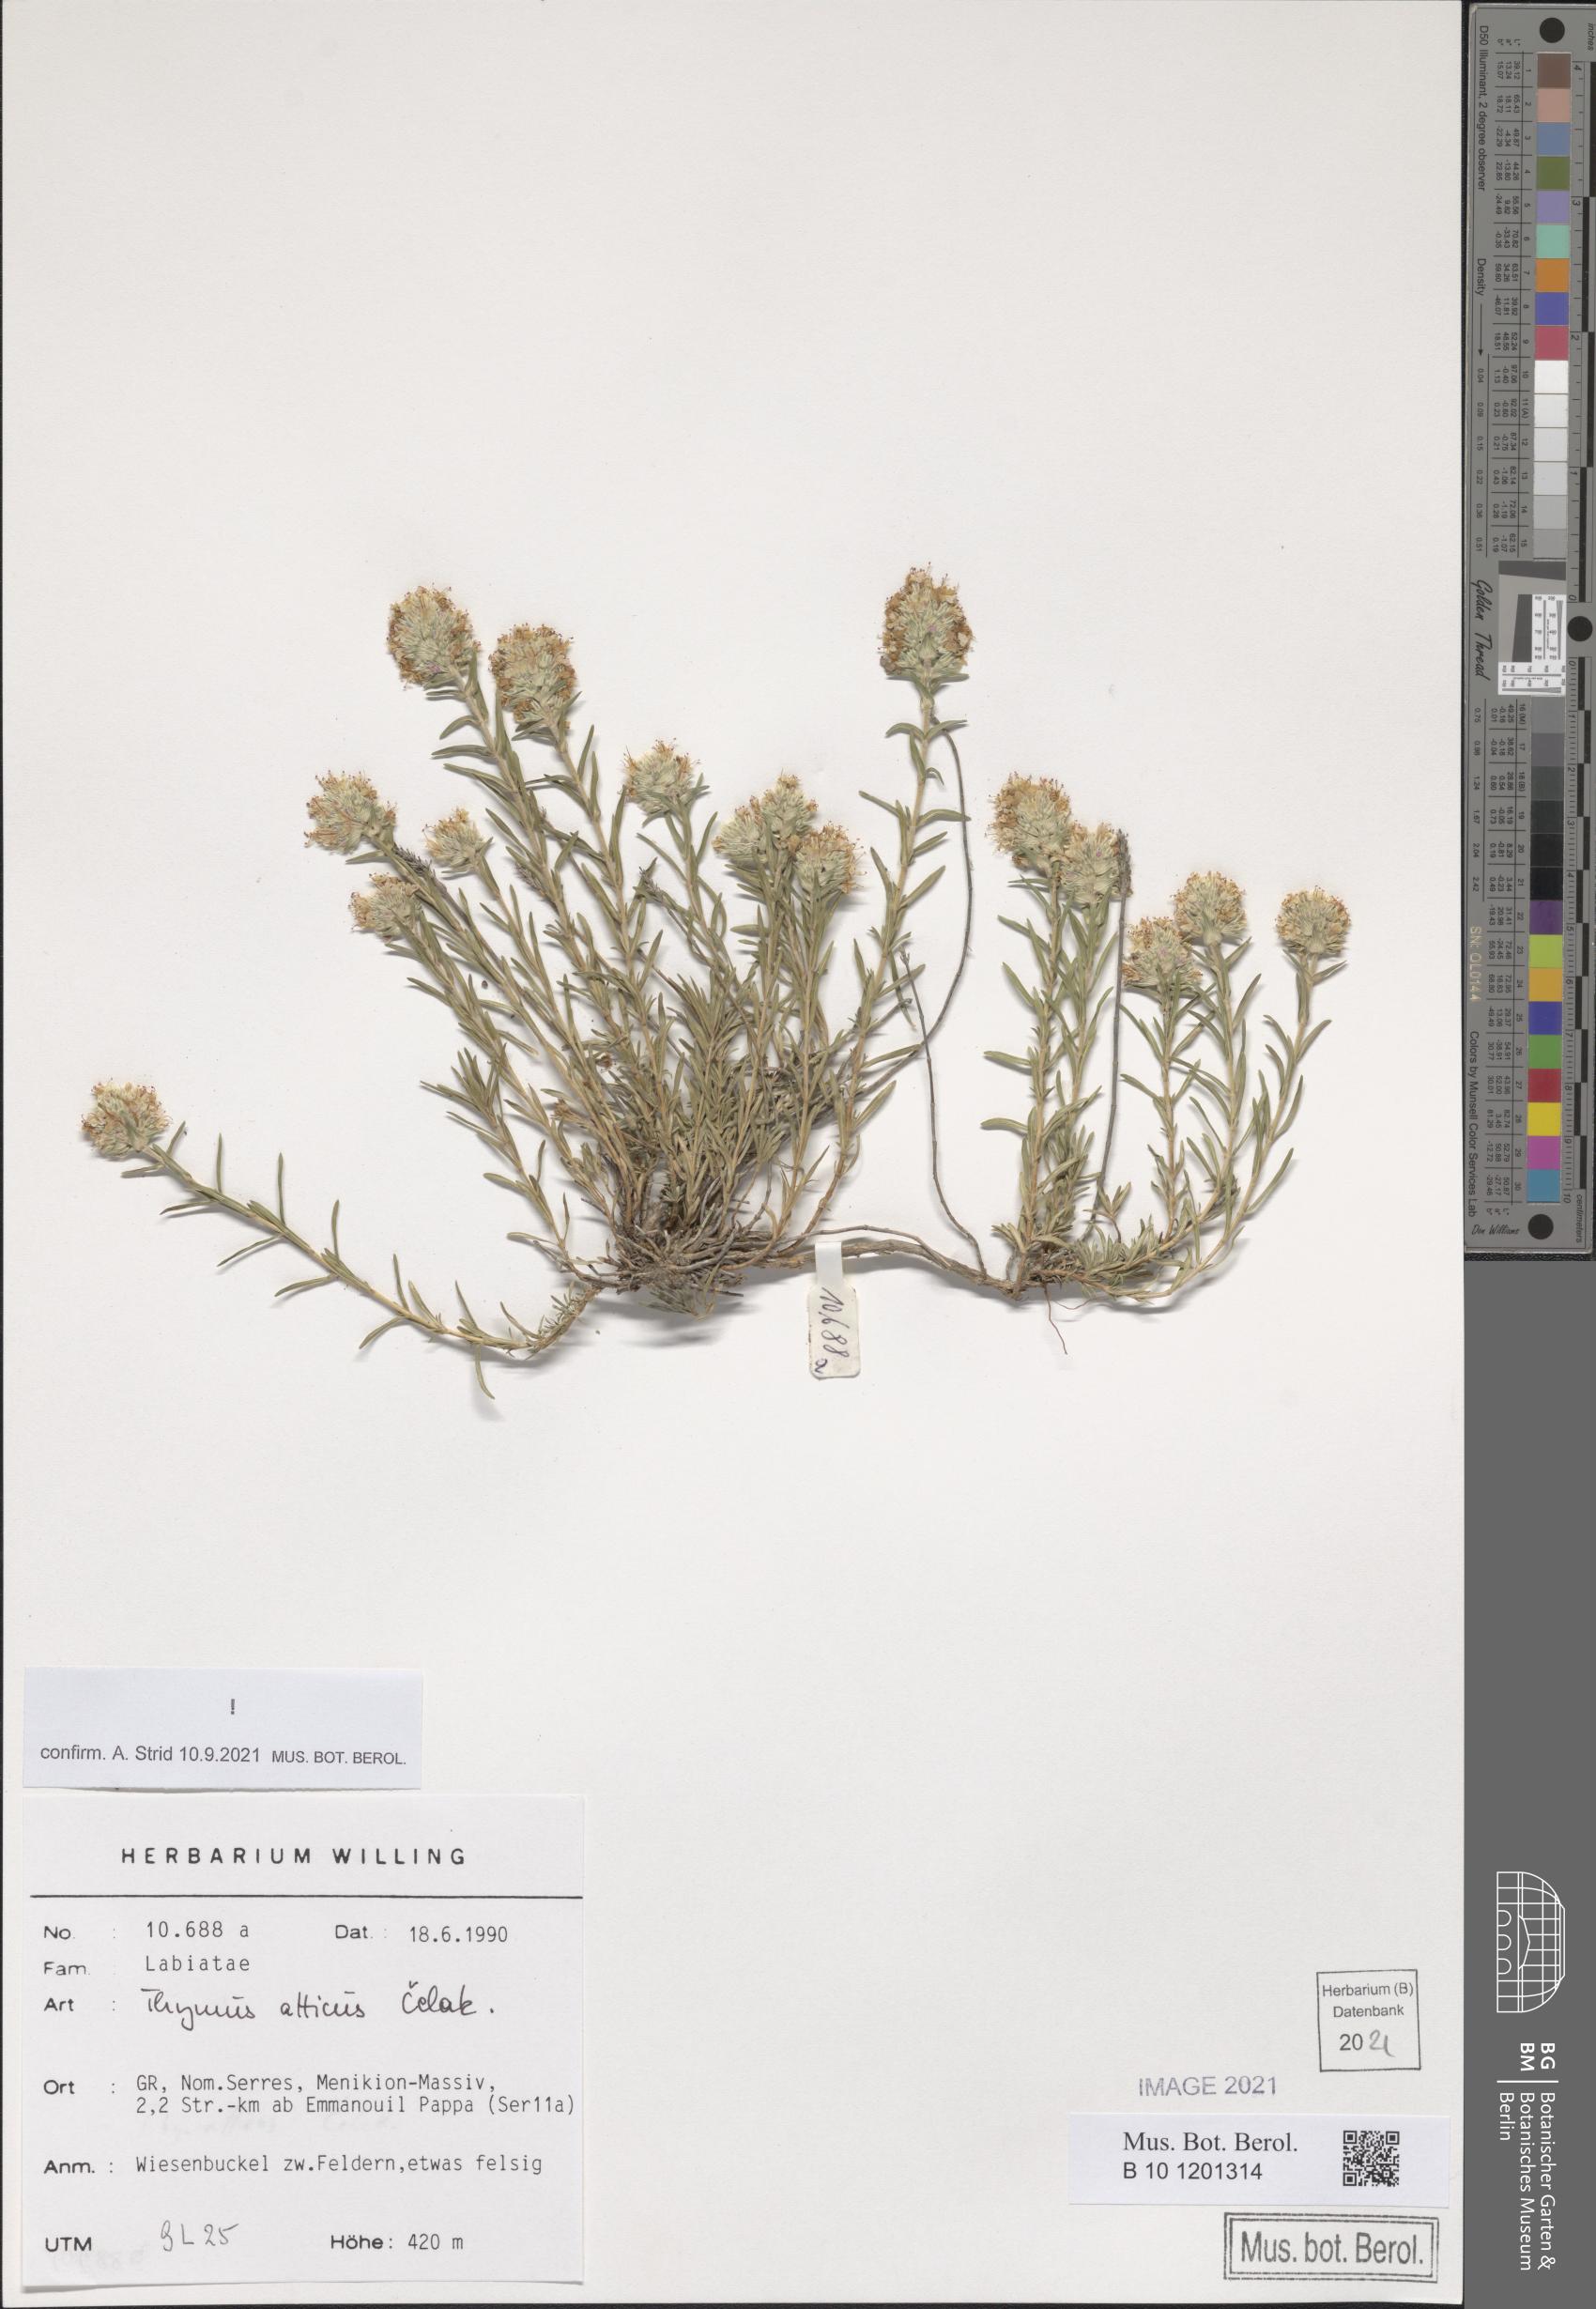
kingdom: Plantae
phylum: Tracheophyta
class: Magnoliopsida
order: Lamiales
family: Lamiaceae
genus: Thymus
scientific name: Thymus atticus
